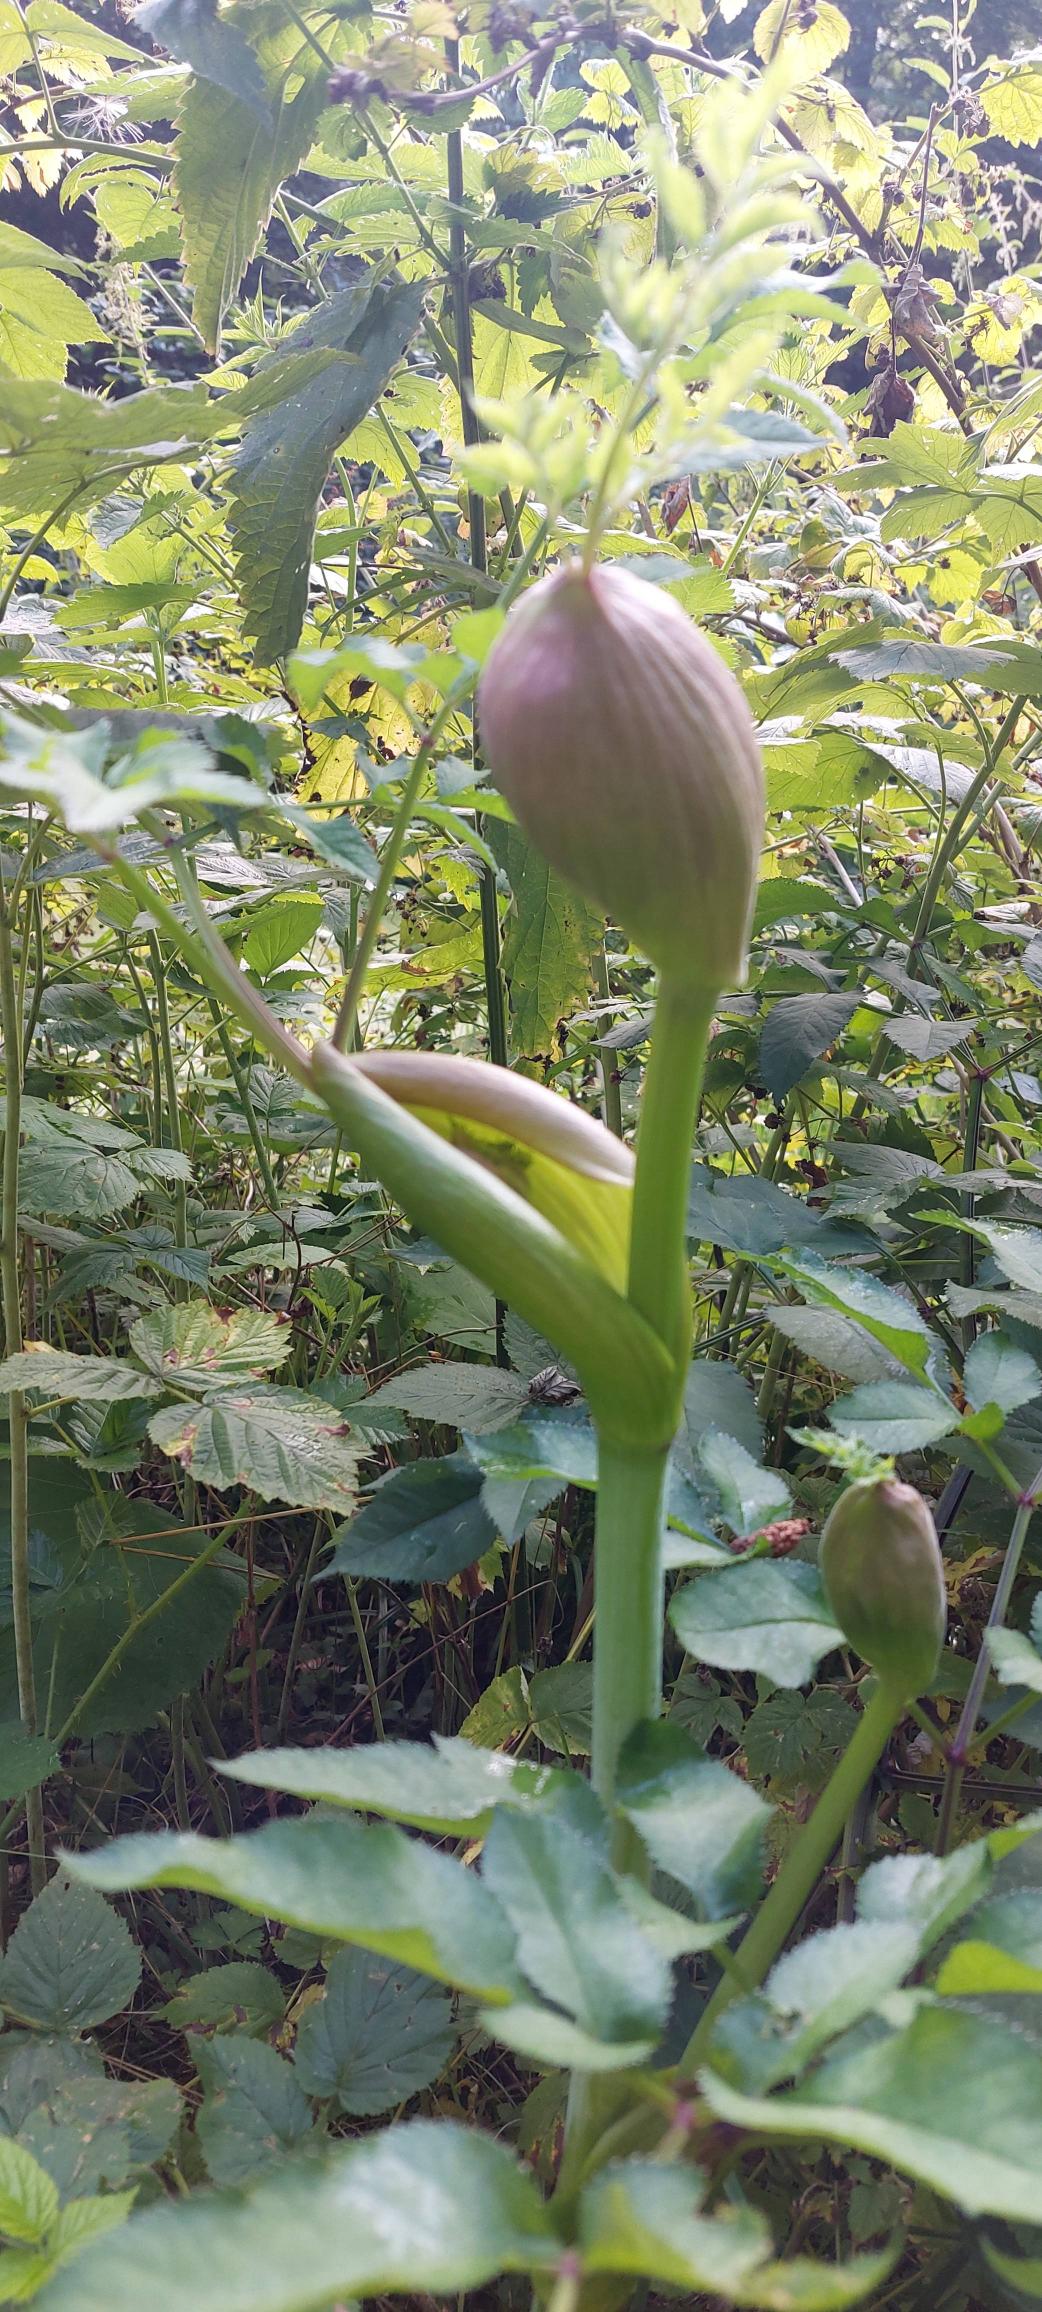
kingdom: Plantae
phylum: Tracheophyta
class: Magnoliopsida
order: Apiales
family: Apiaceae
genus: Angelica
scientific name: Angelica sylvestris
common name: Angelik
